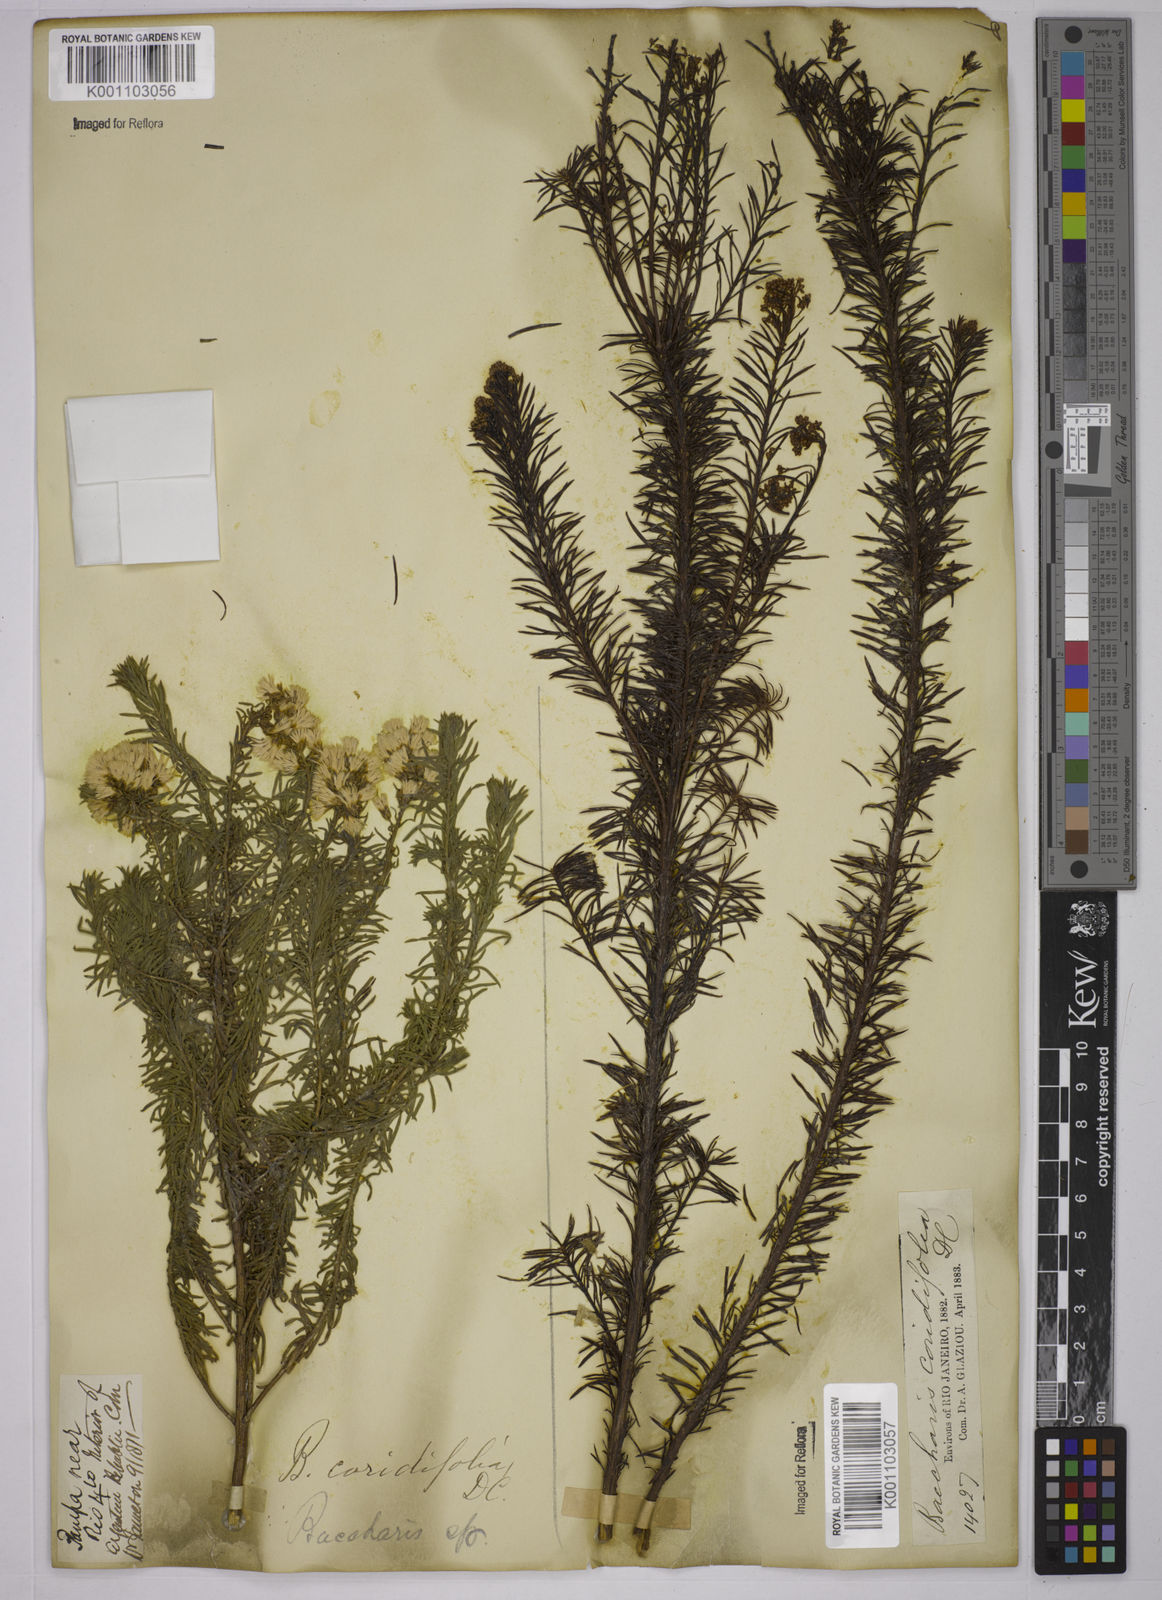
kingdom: Plantae
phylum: Tracheophyta
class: Magnoliopsida
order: Asterales
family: Asteraceae
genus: Baccharis
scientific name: Baccharis coridifolia
